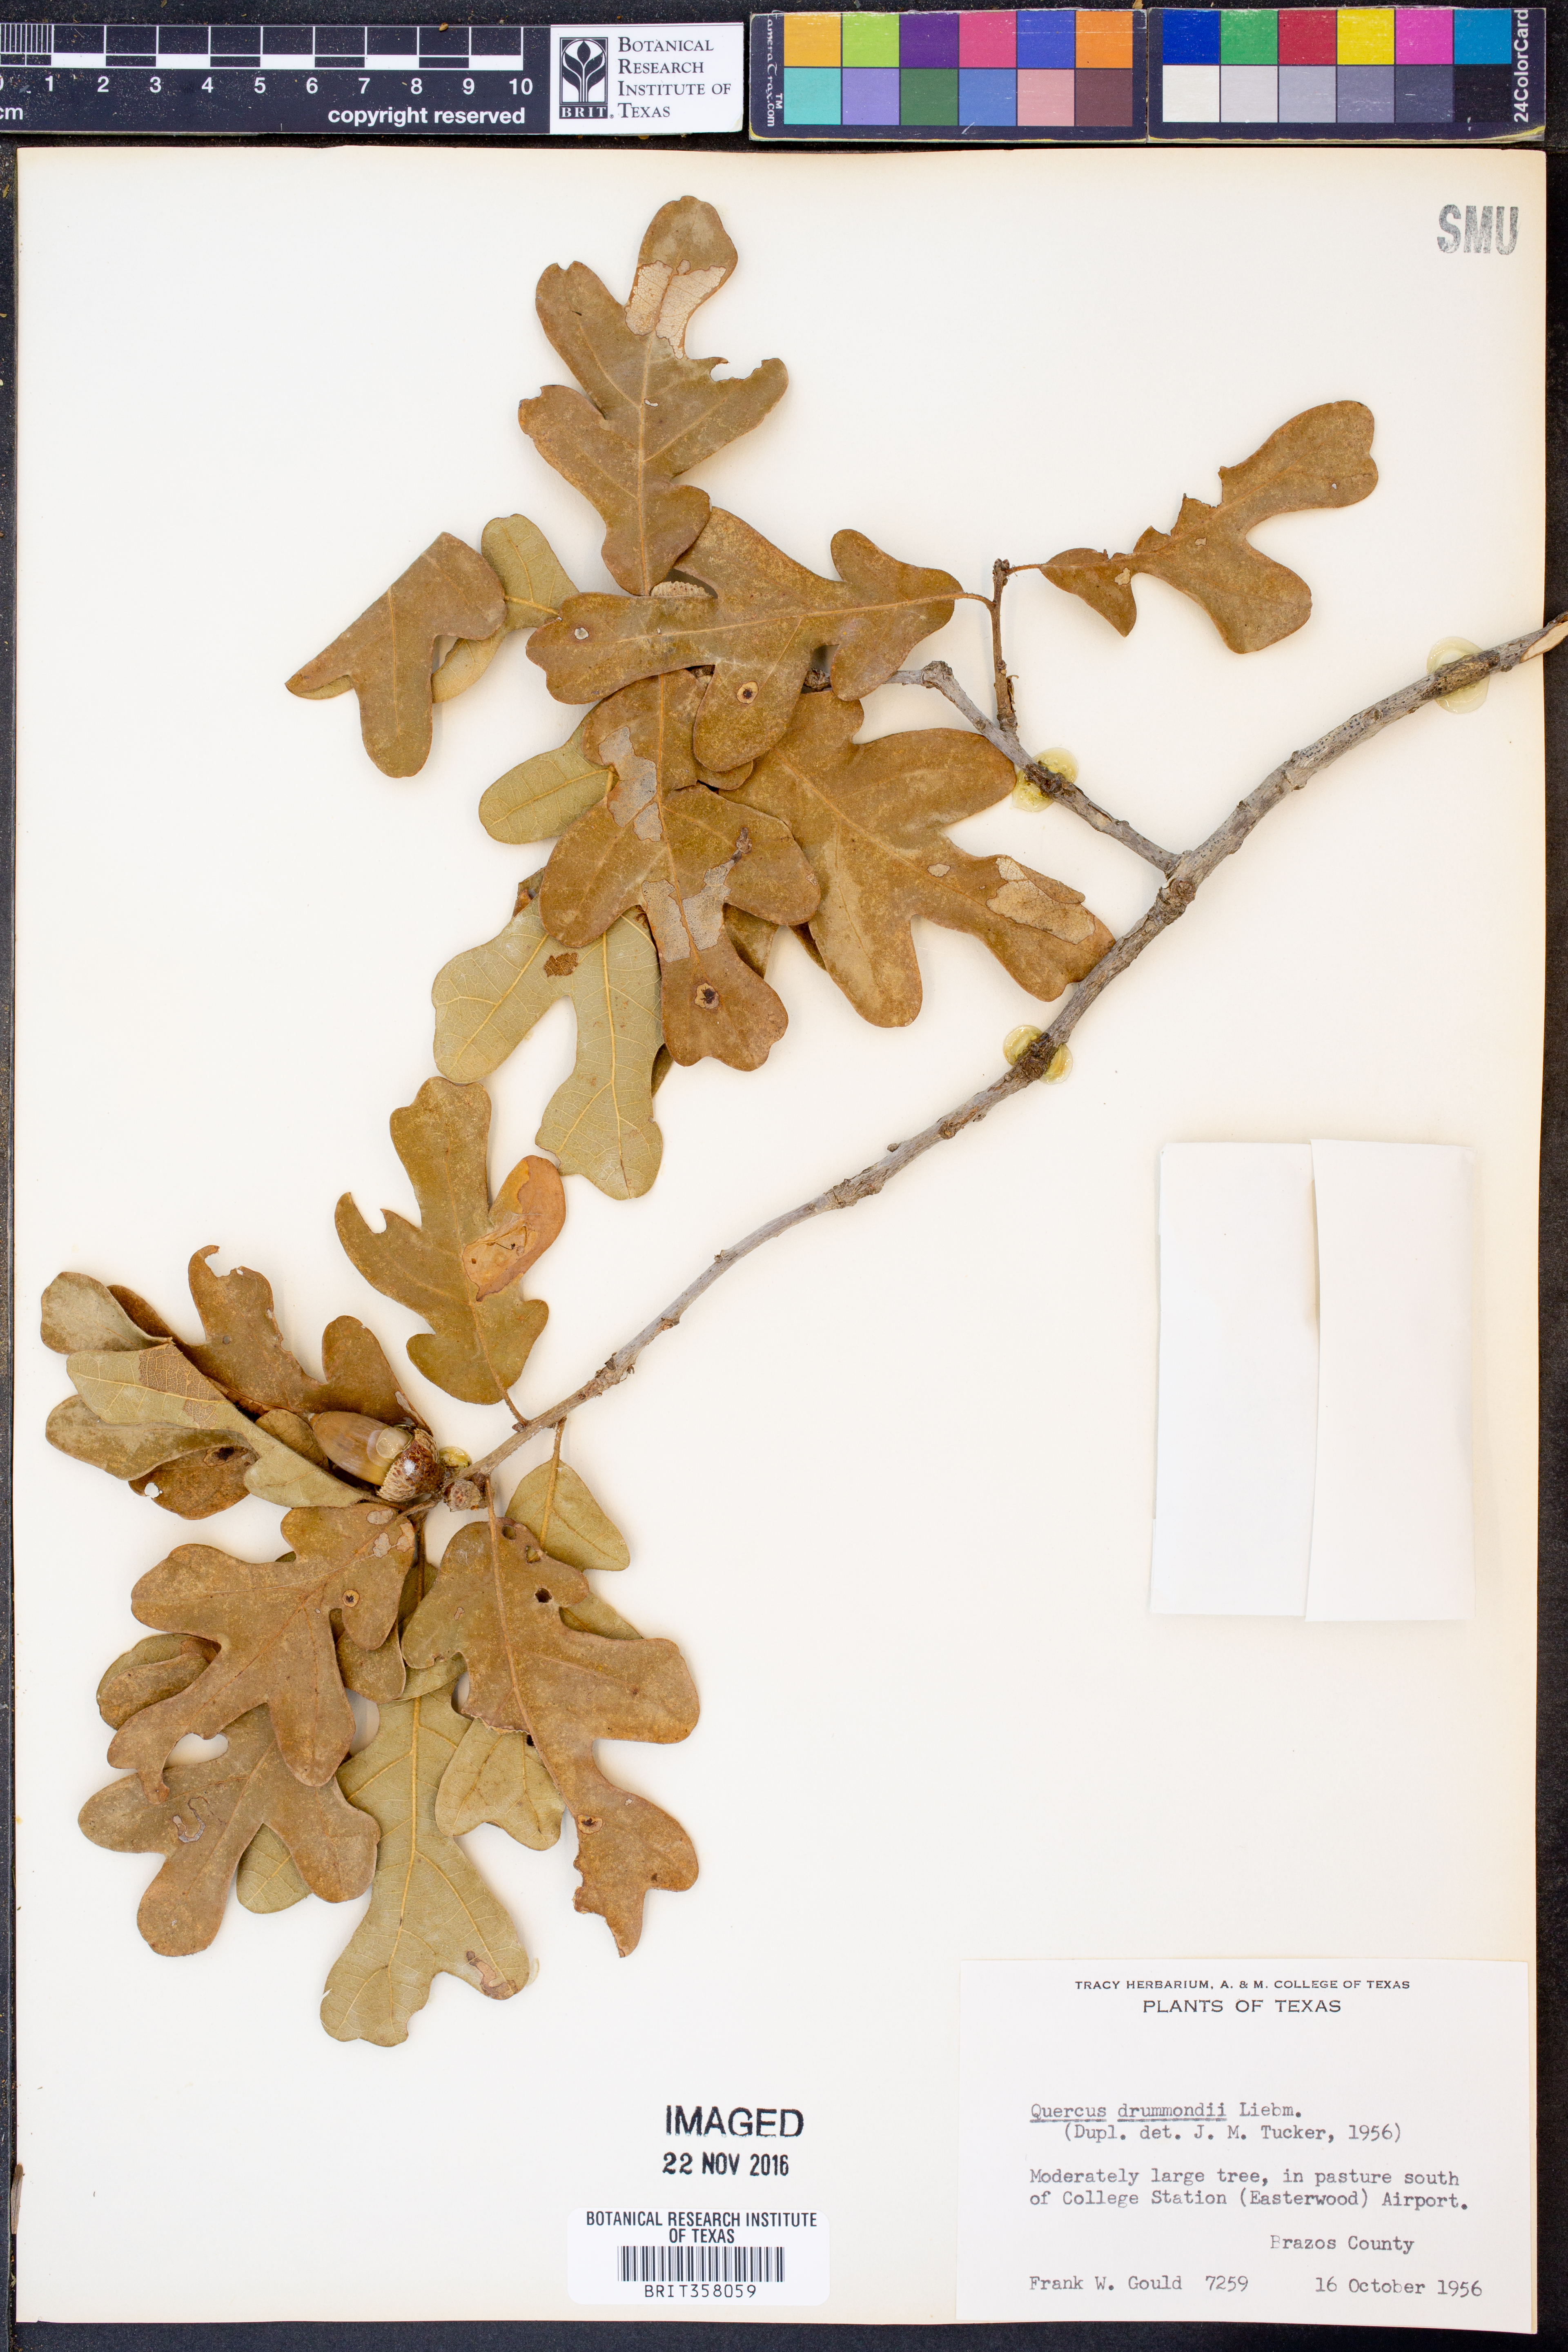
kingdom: Plantae
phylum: Tracheophyta
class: Magnoliopsida
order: Fagales
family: Fagaceae
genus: Quercus
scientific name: Quercus drummondii
